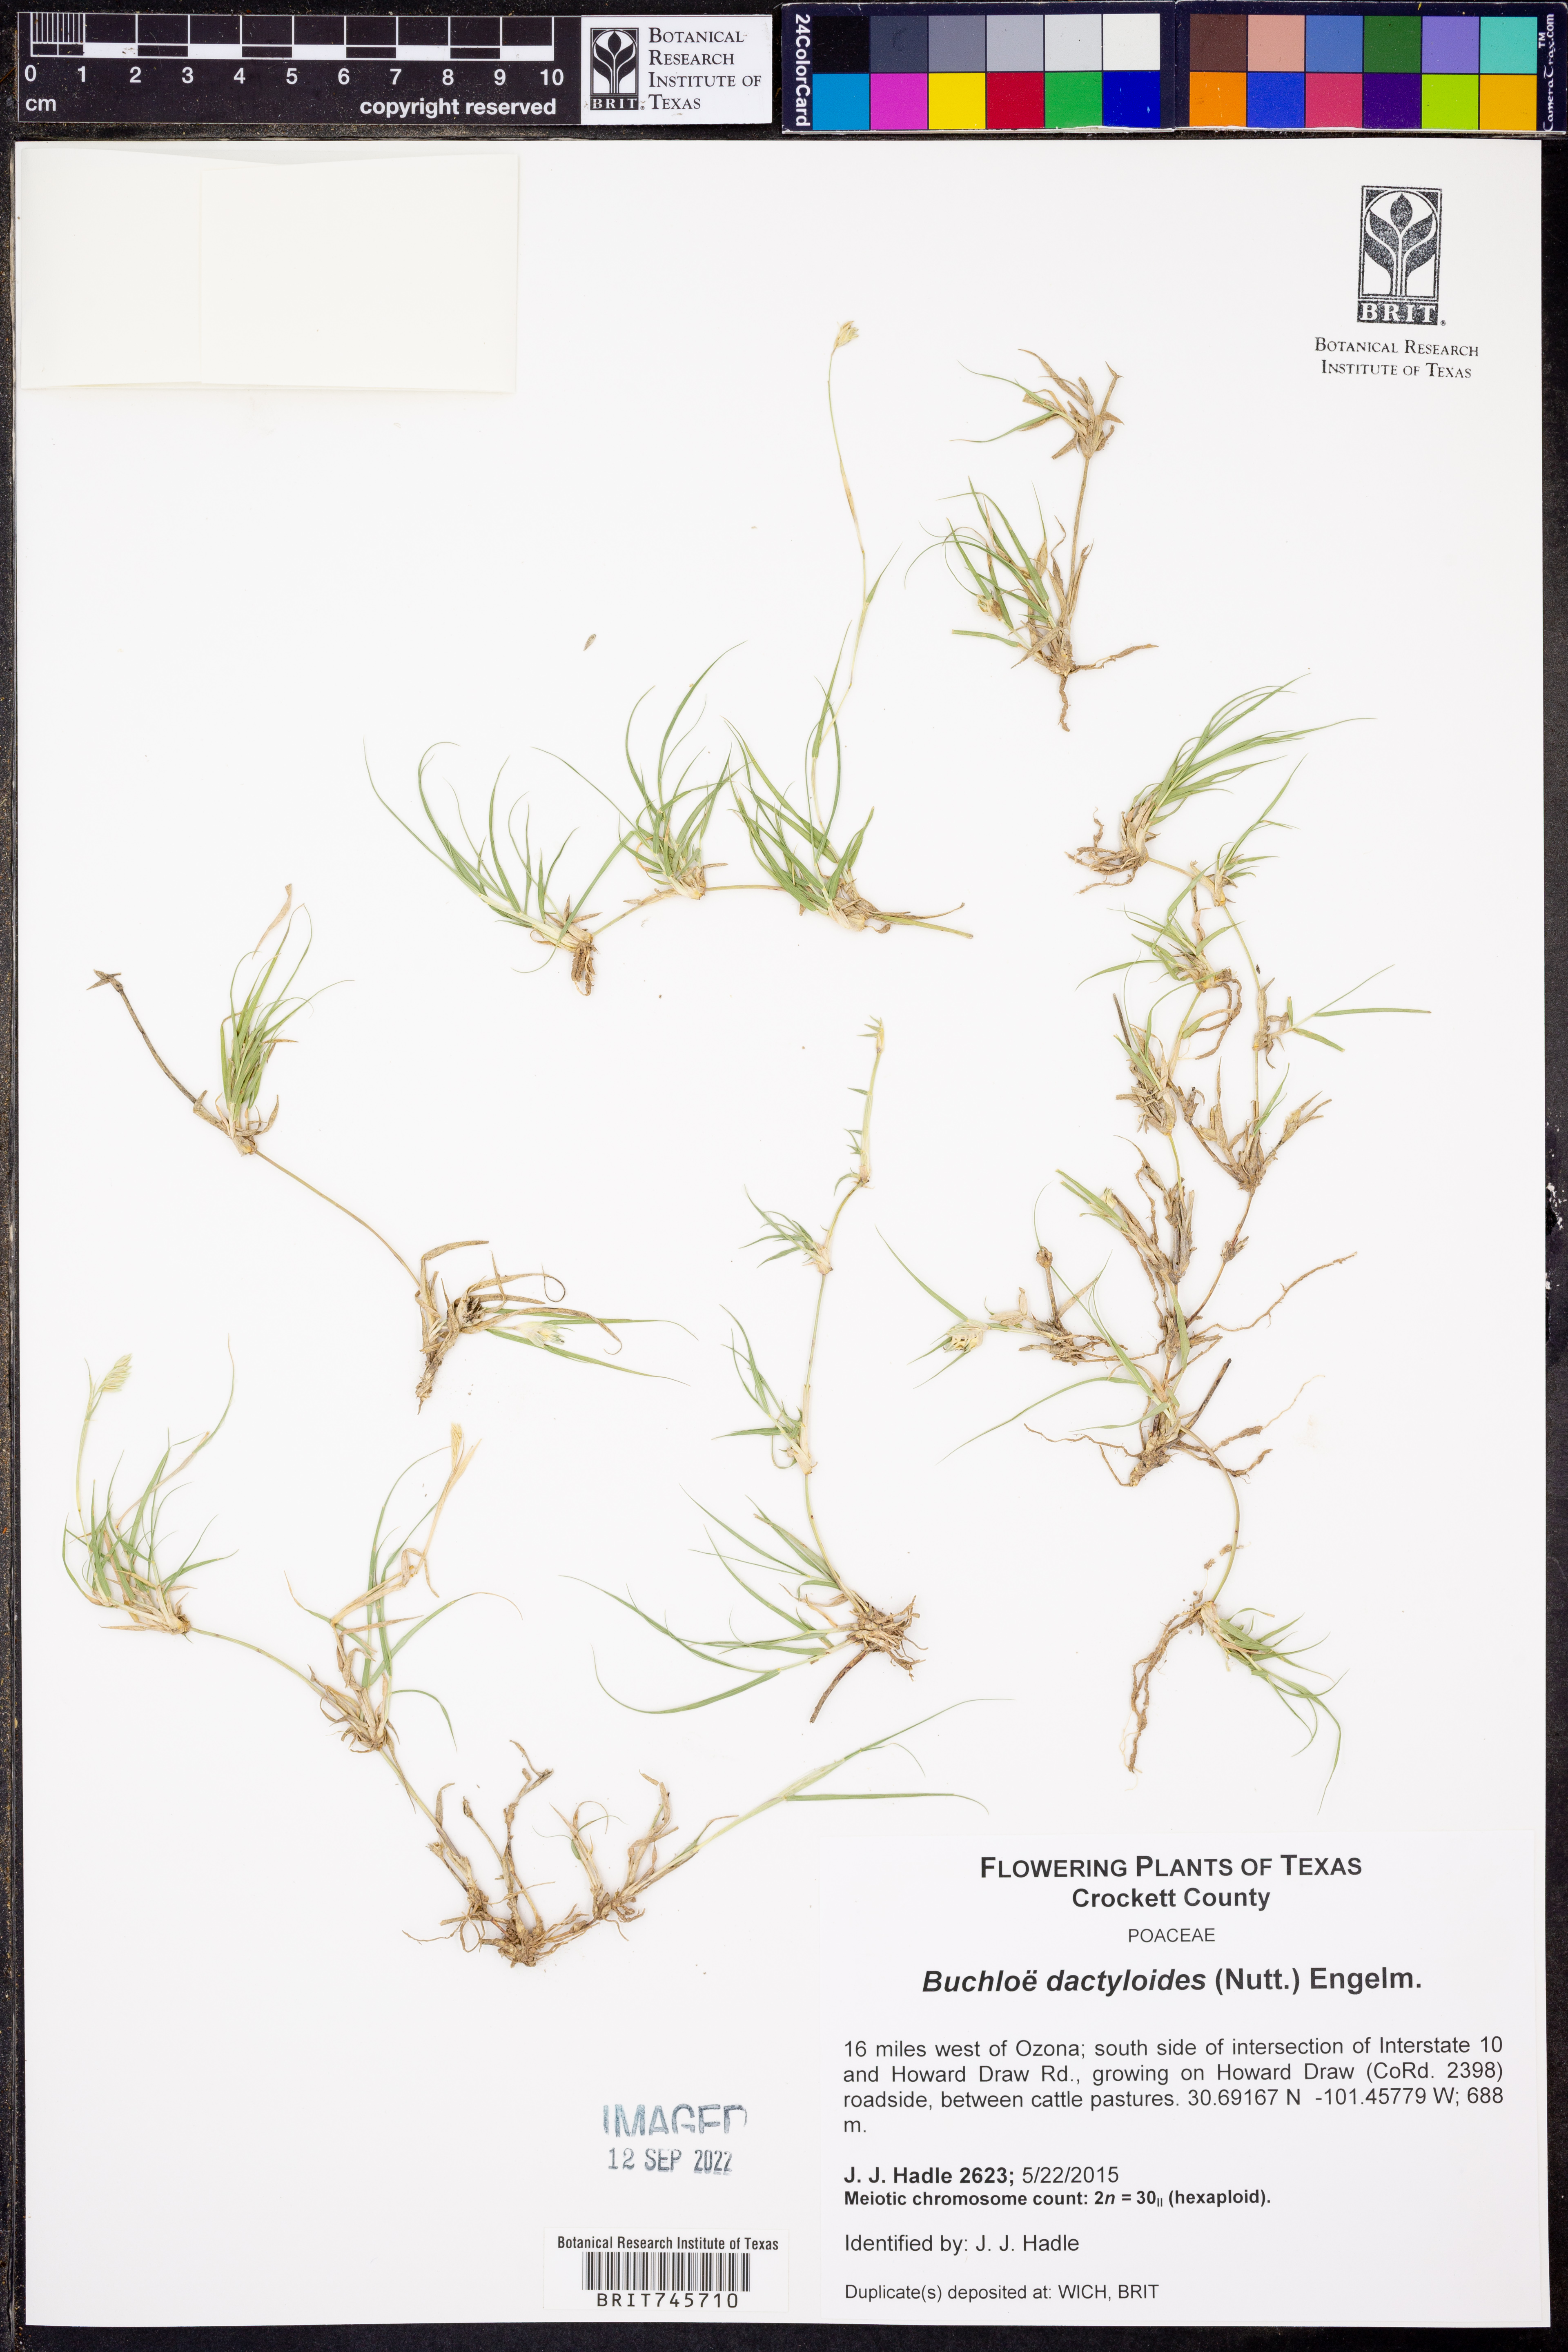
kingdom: Plantae
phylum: Tracheophyta
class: Liliopsida
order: Poales
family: Poaceae
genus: Bouteloua
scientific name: Bouteloua dactyloides
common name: Buffalo grass
